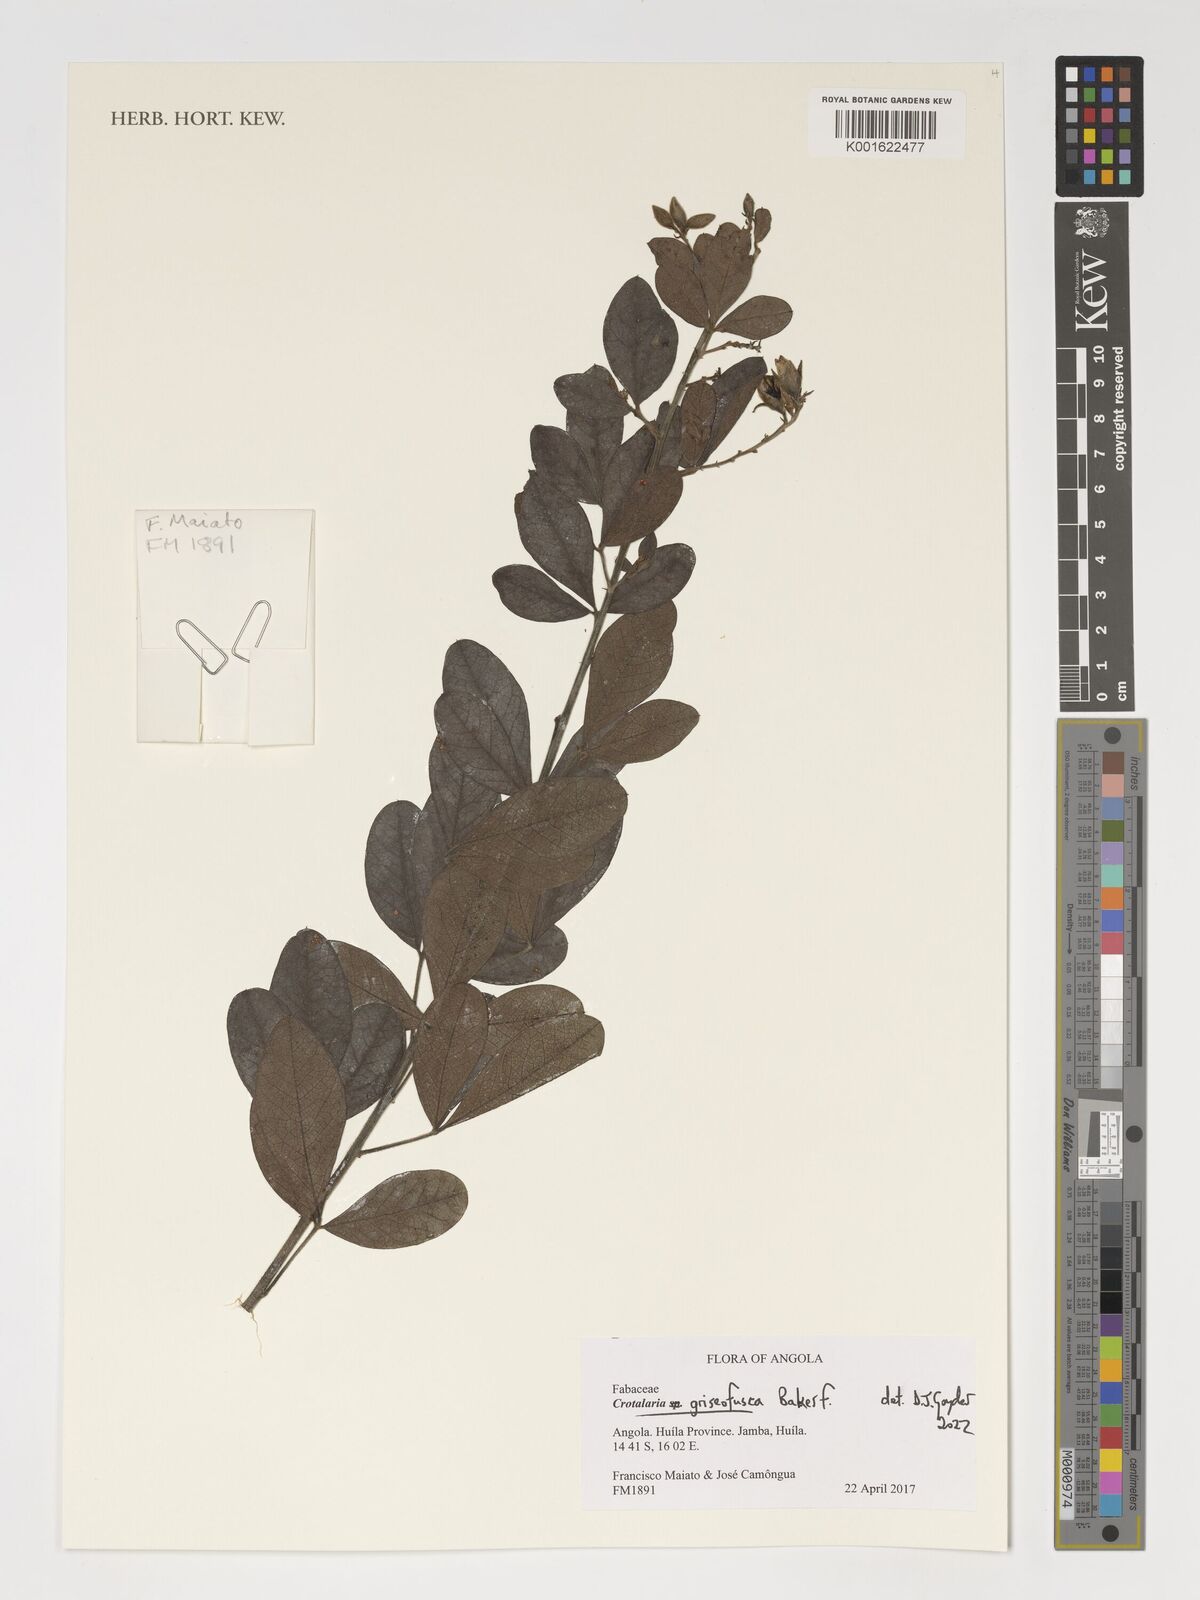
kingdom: Plantae
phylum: Tracheophyta
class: Magnoliopsida
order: Fabales
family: Fabaceae
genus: Crotalaria
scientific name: Crotalaria griseofusca
